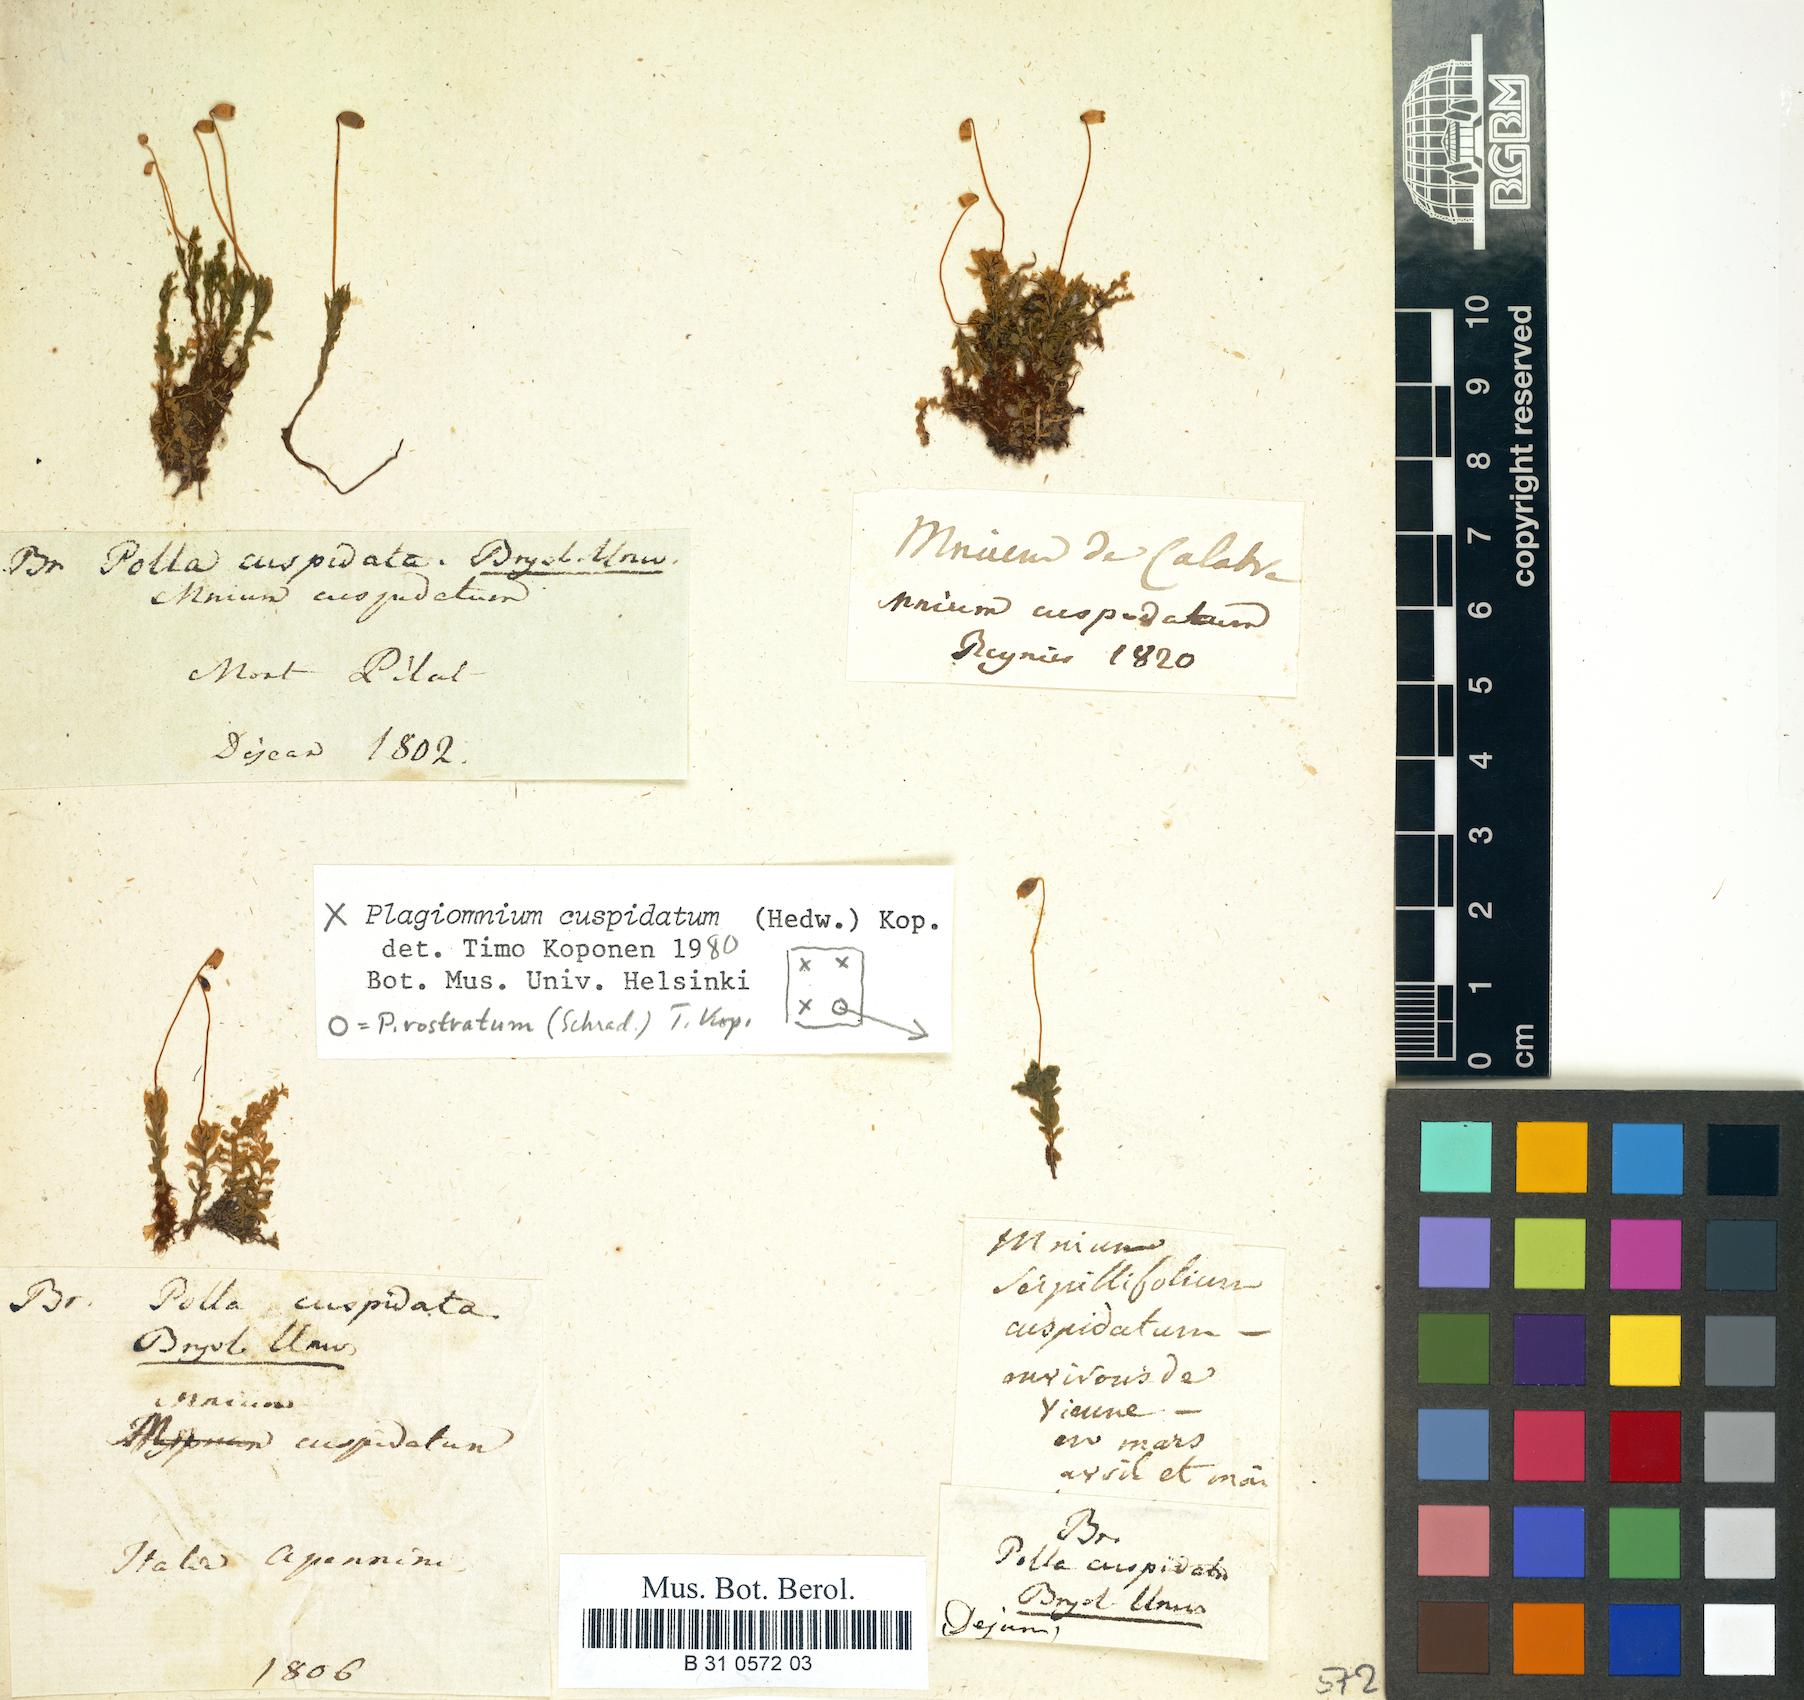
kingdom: Plantae
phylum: Bryophyta
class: Bryopsida
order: Bryales
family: Mniaceae
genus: Plagiomnium
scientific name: Plagiomnium cuspidatum
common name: Woodsy leafy moss
